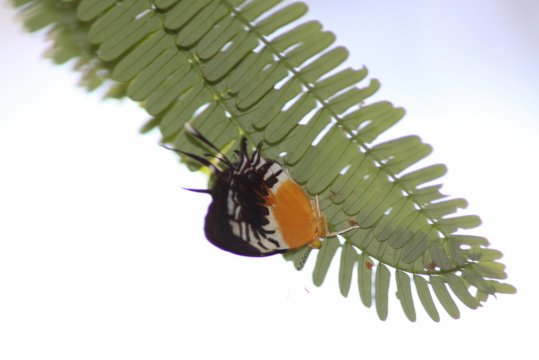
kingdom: Animalia
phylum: Arthropoda
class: Insecta
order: Lepidoptera
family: Riodinidae
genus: Helicopis
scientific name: Helicopis gnidus
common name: Gnidus Metalmark
